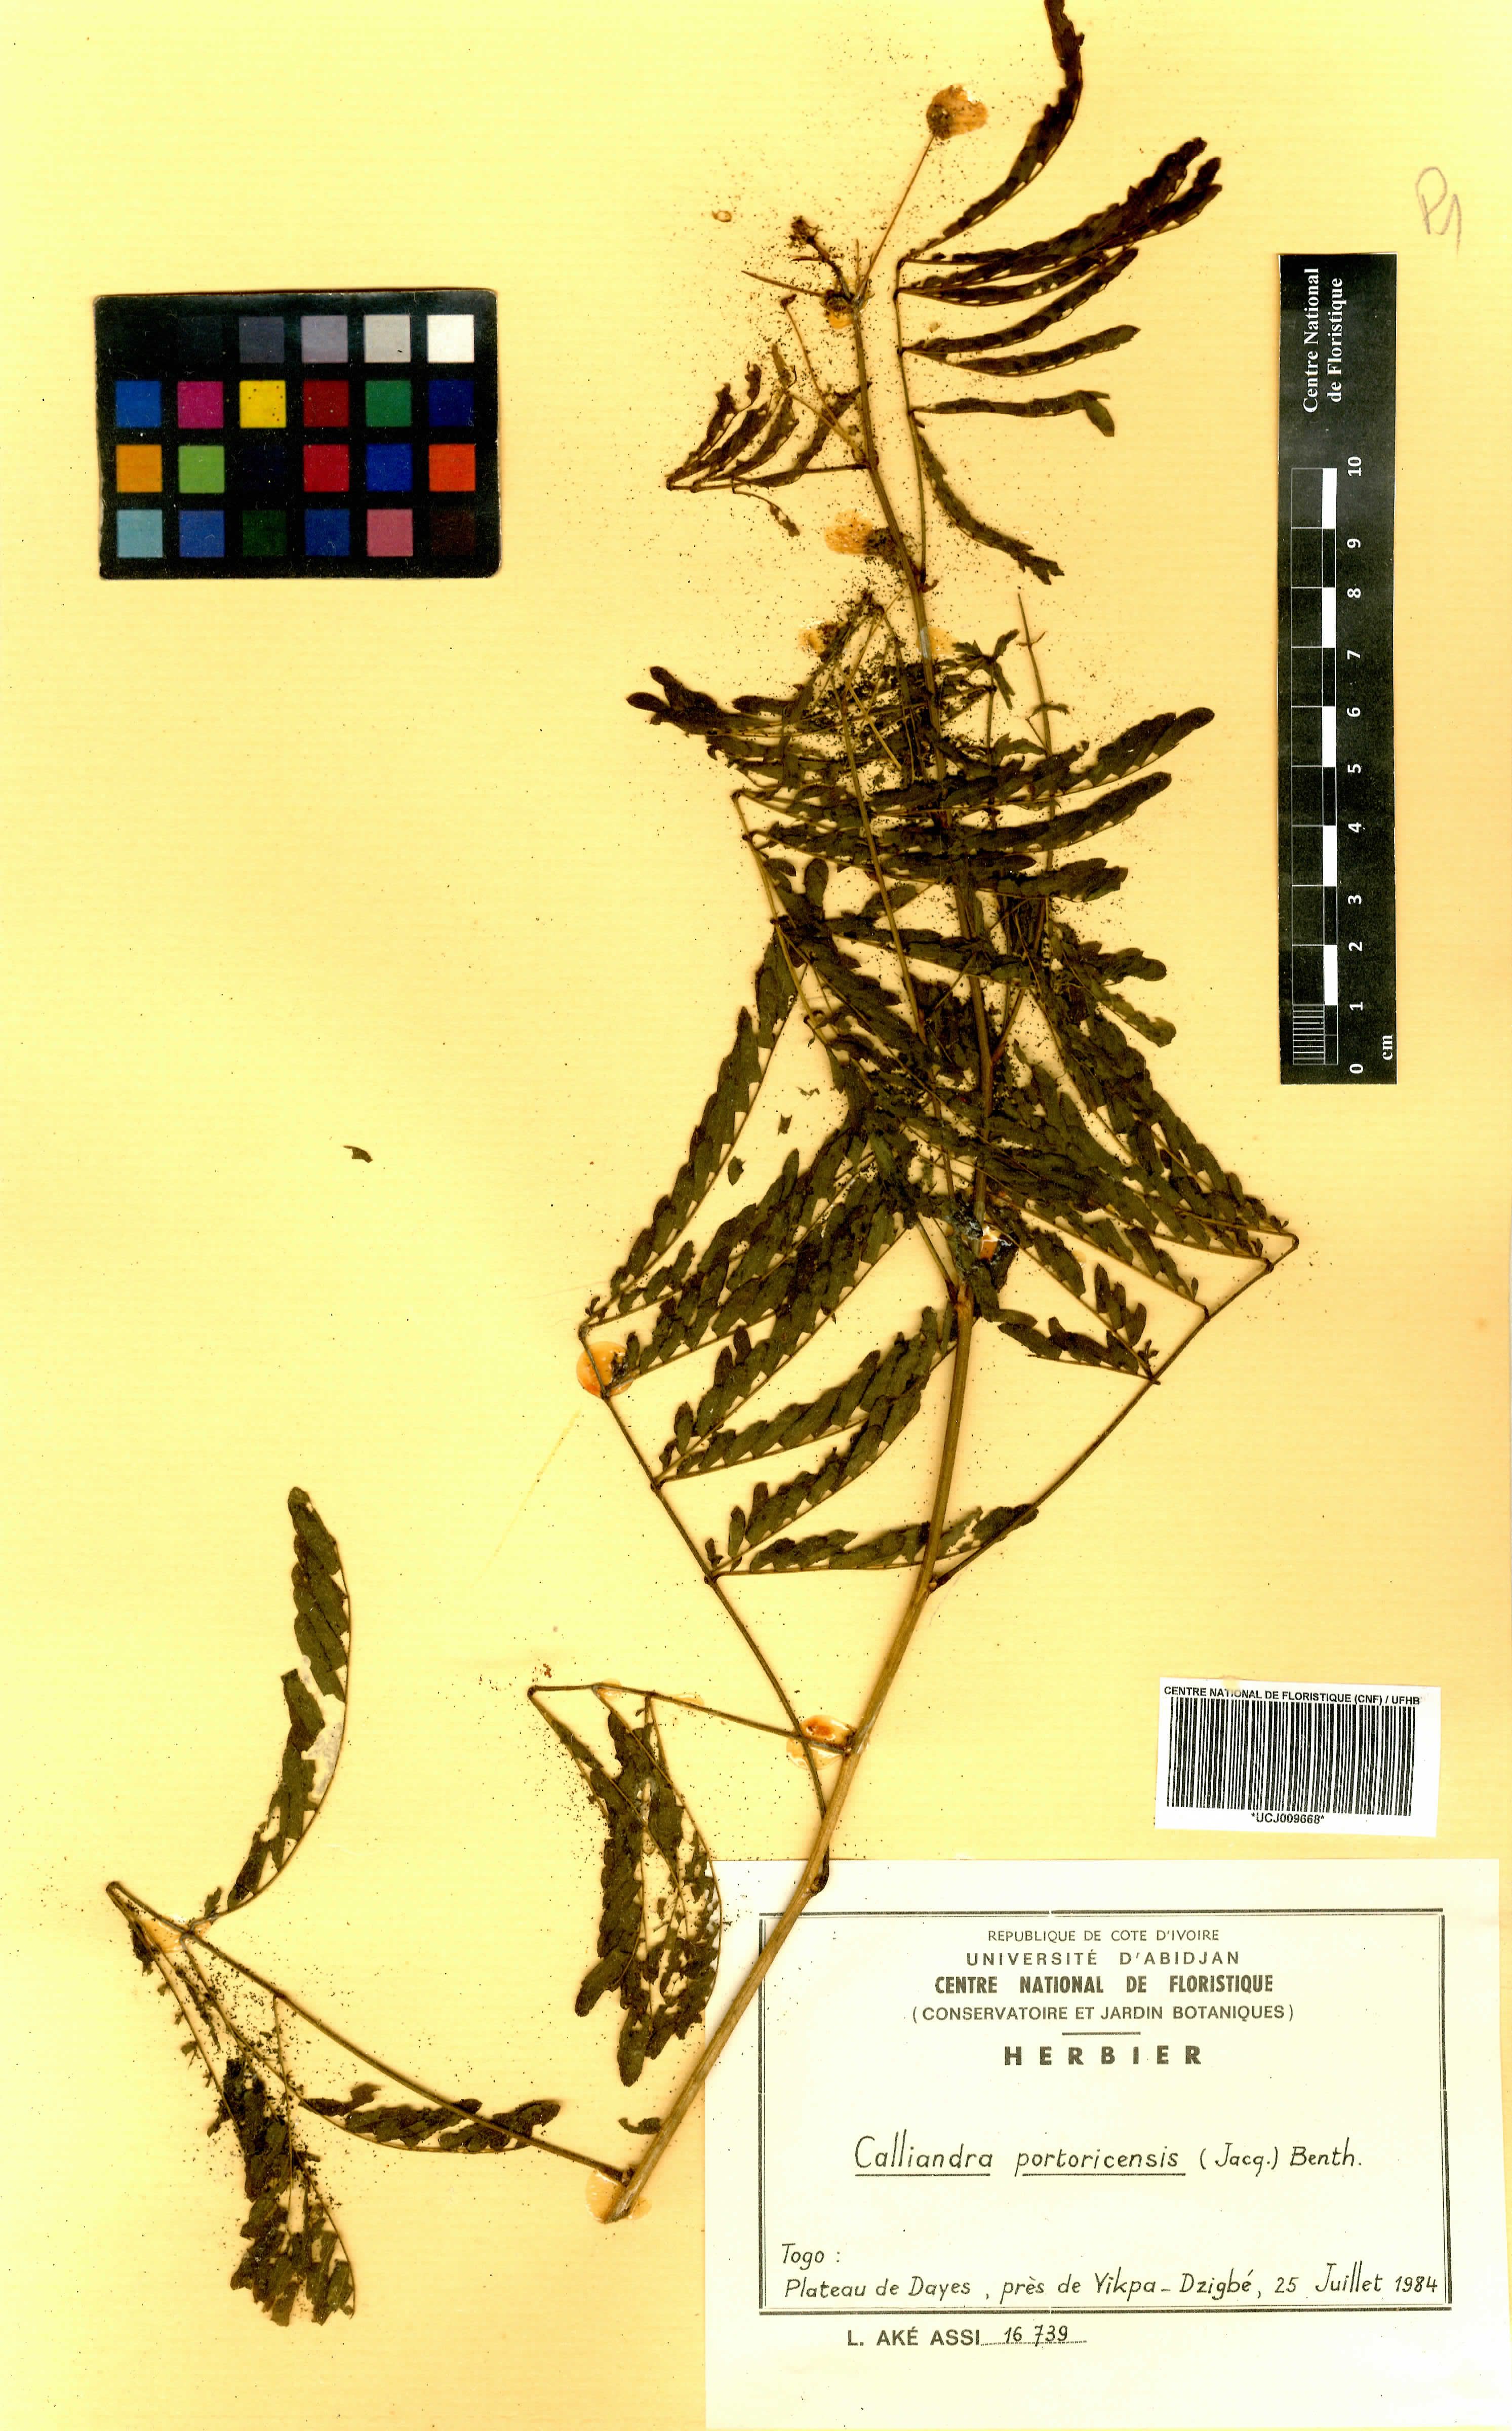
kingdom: Plantae
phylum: Tracheophyta
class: Magnoliopsida
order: Fabales
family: Fabaceae
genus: Zapoteca
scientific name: Zapoteca portoricensis
